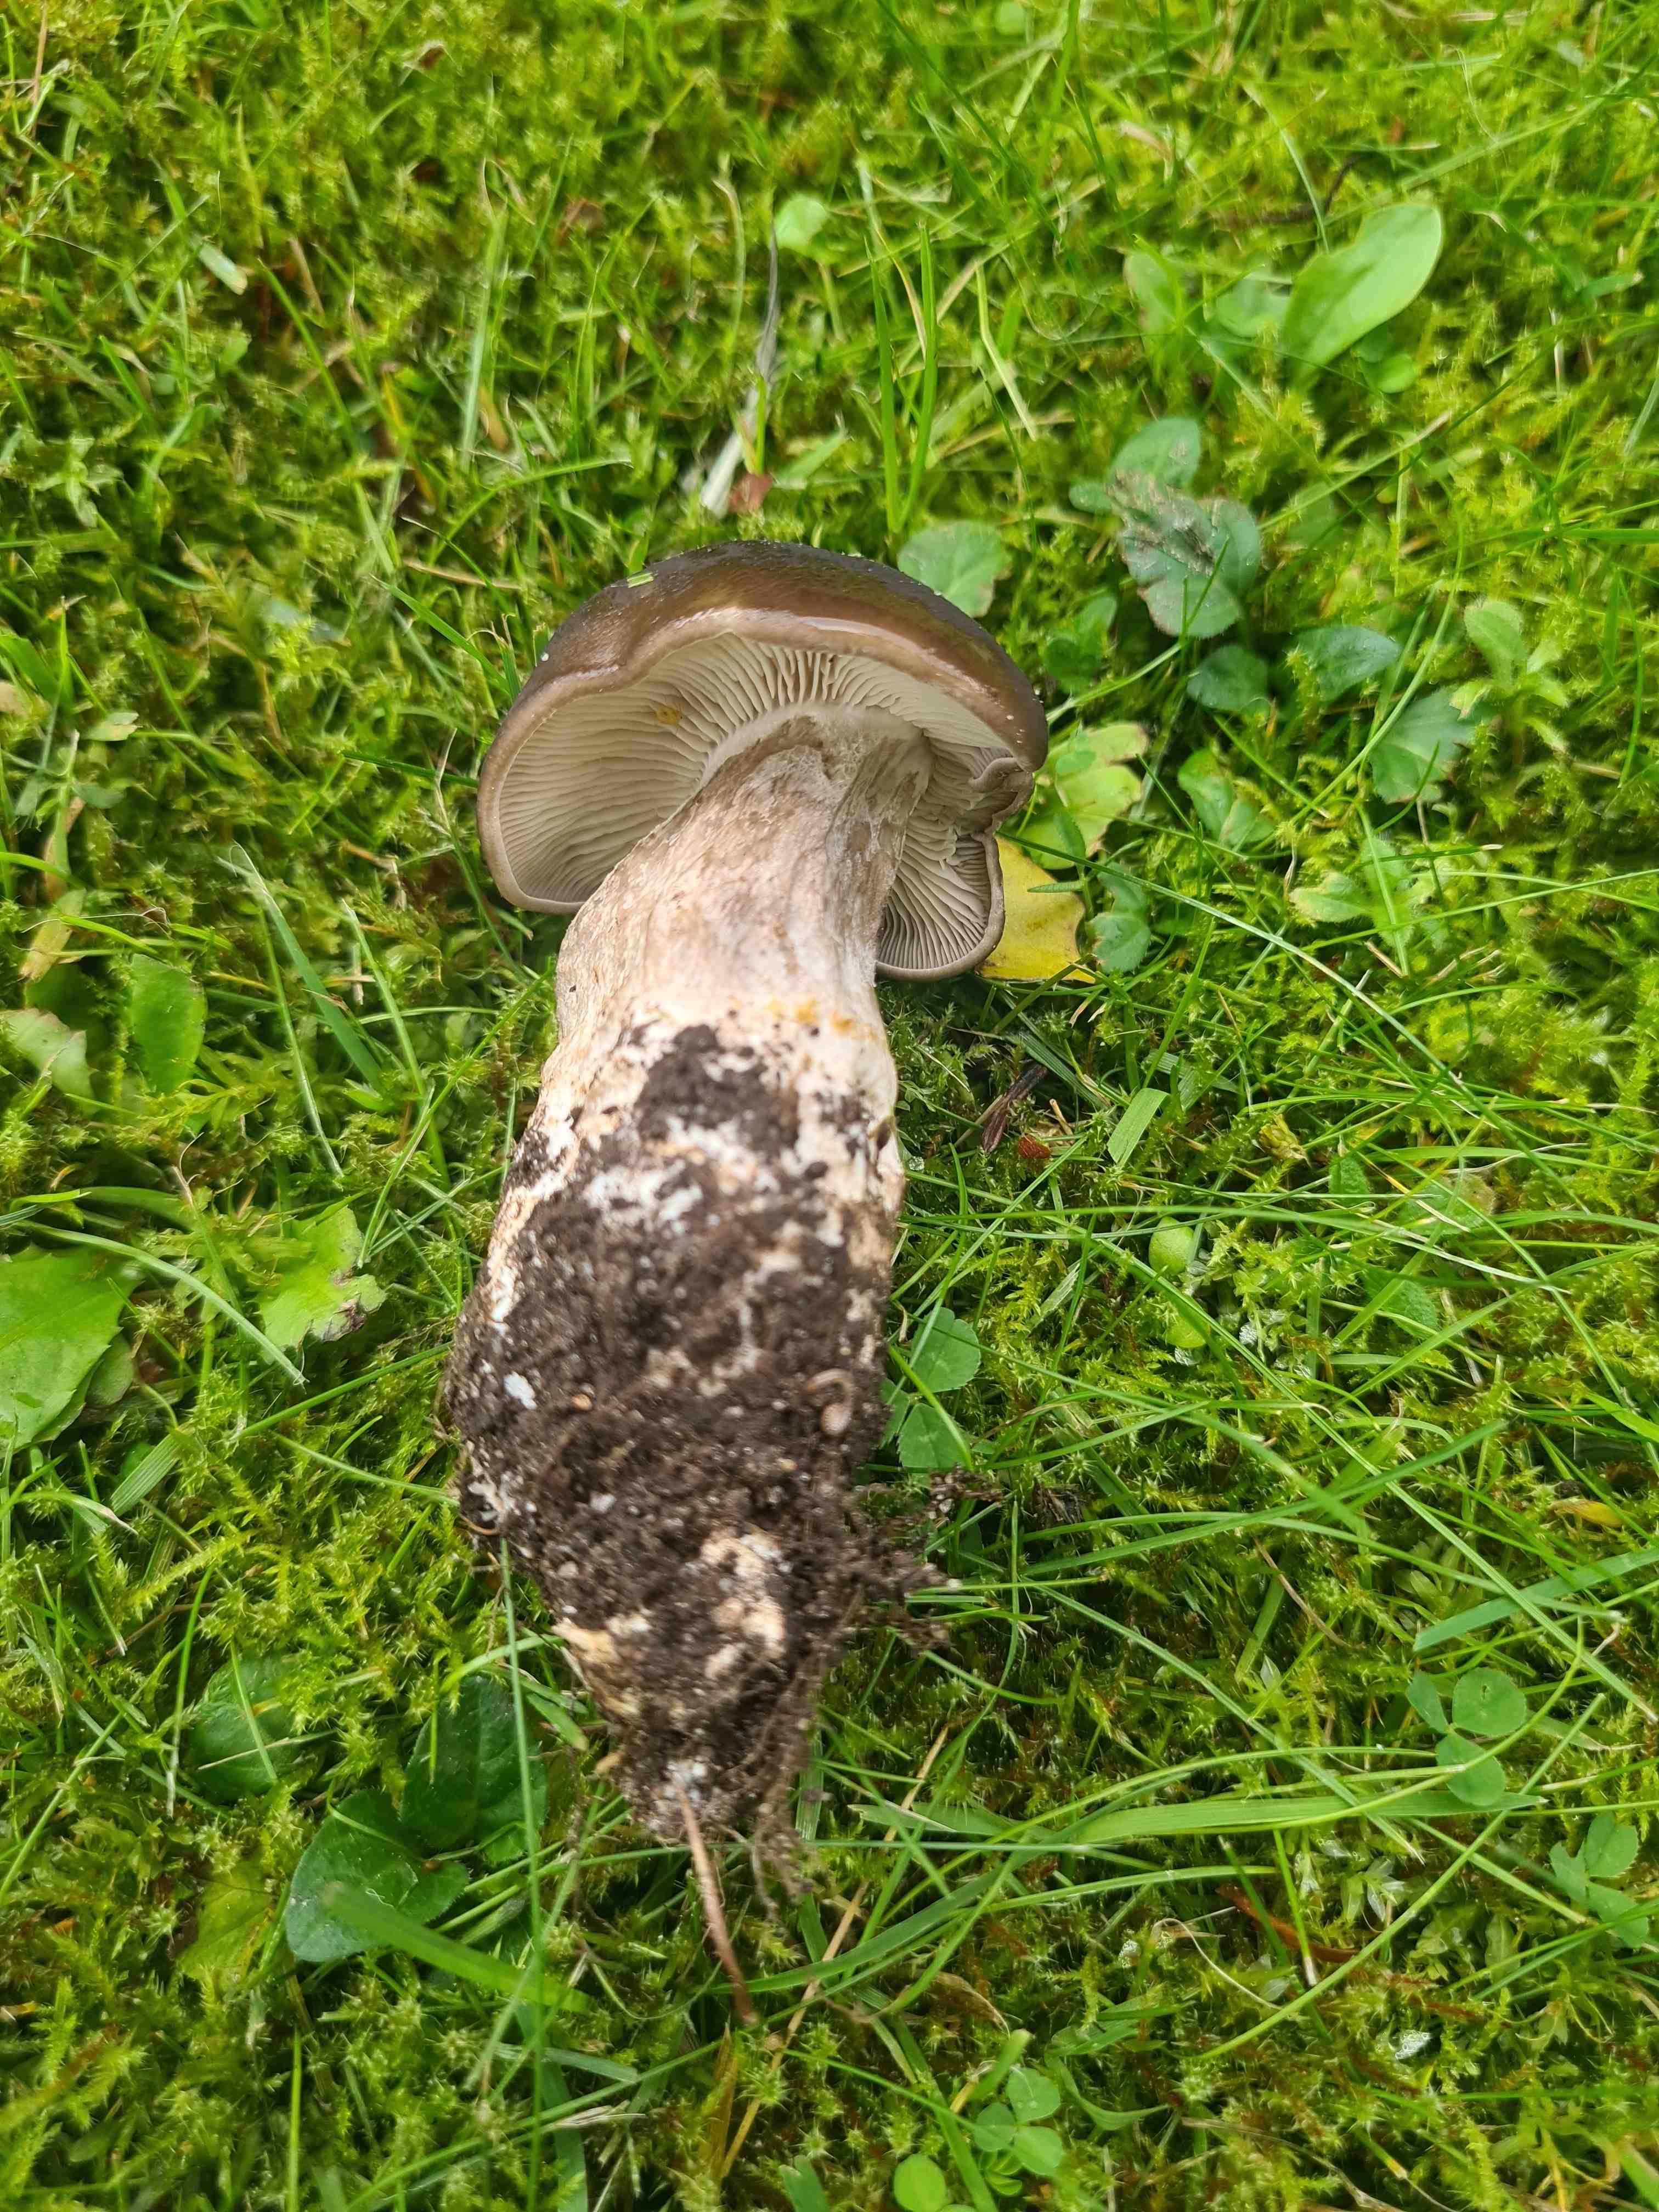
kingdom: Fungi
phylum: Basidiomycota
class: Agaricomycetes
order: Agaricales
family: Lyophyllaceae
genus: Lyophyllum
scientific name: Lyophyllum decastes
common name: røggrå gråblad
